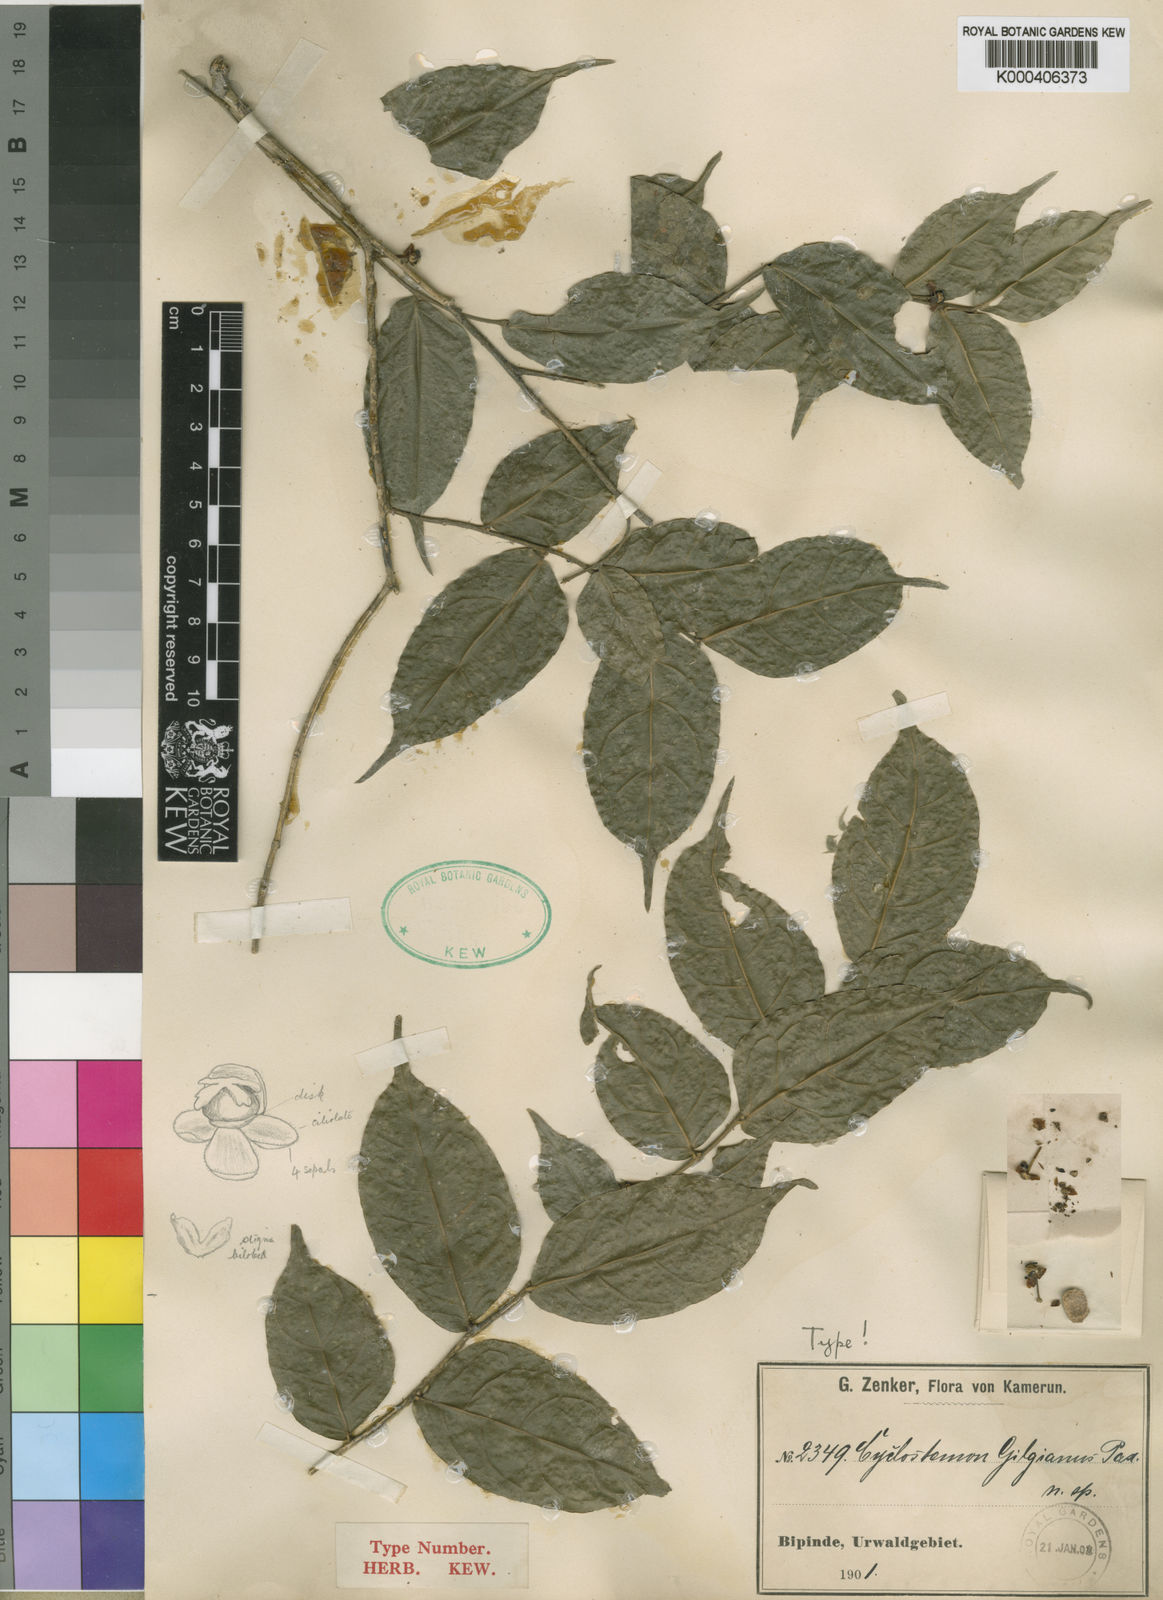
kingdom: Plantae
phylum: Tracheophyta
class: Magnoliopsida
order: Malpighiales
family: Putranjivaceae
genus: Drypetes
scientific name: Drypetes gilgiana
